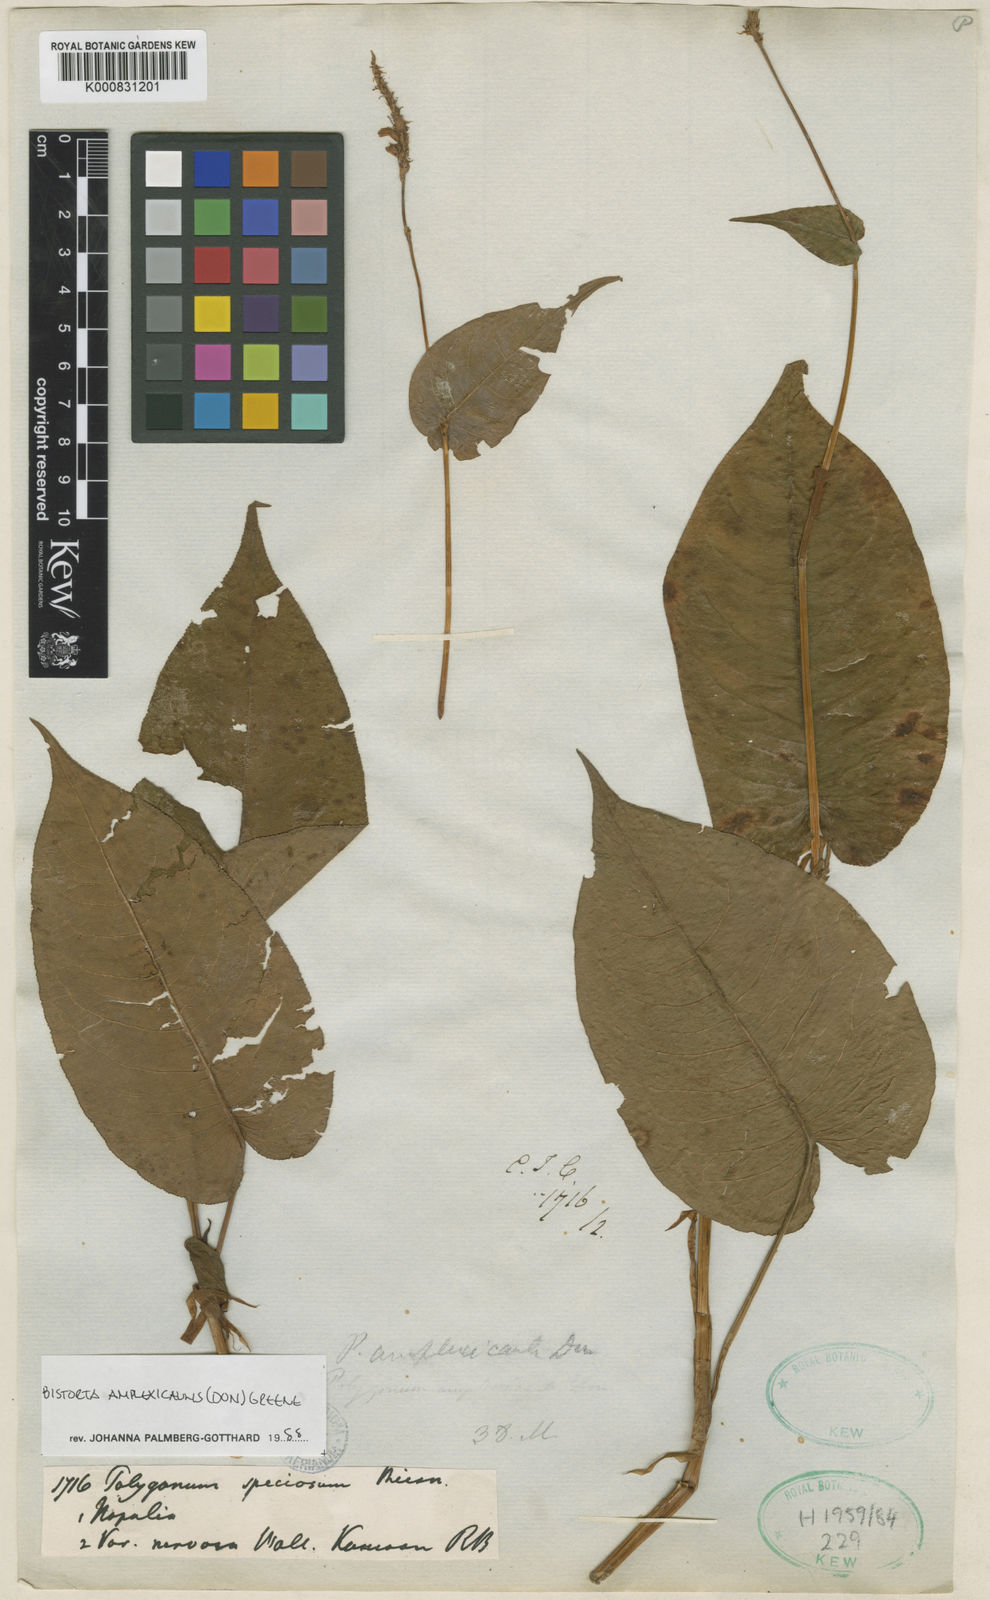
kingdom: Plantae
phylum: Tracheophyta
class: Magnoliopsida
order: Caryophyllales
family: Polygonaceae
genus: Bistorta
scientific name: Bistorta amplexicaulis
